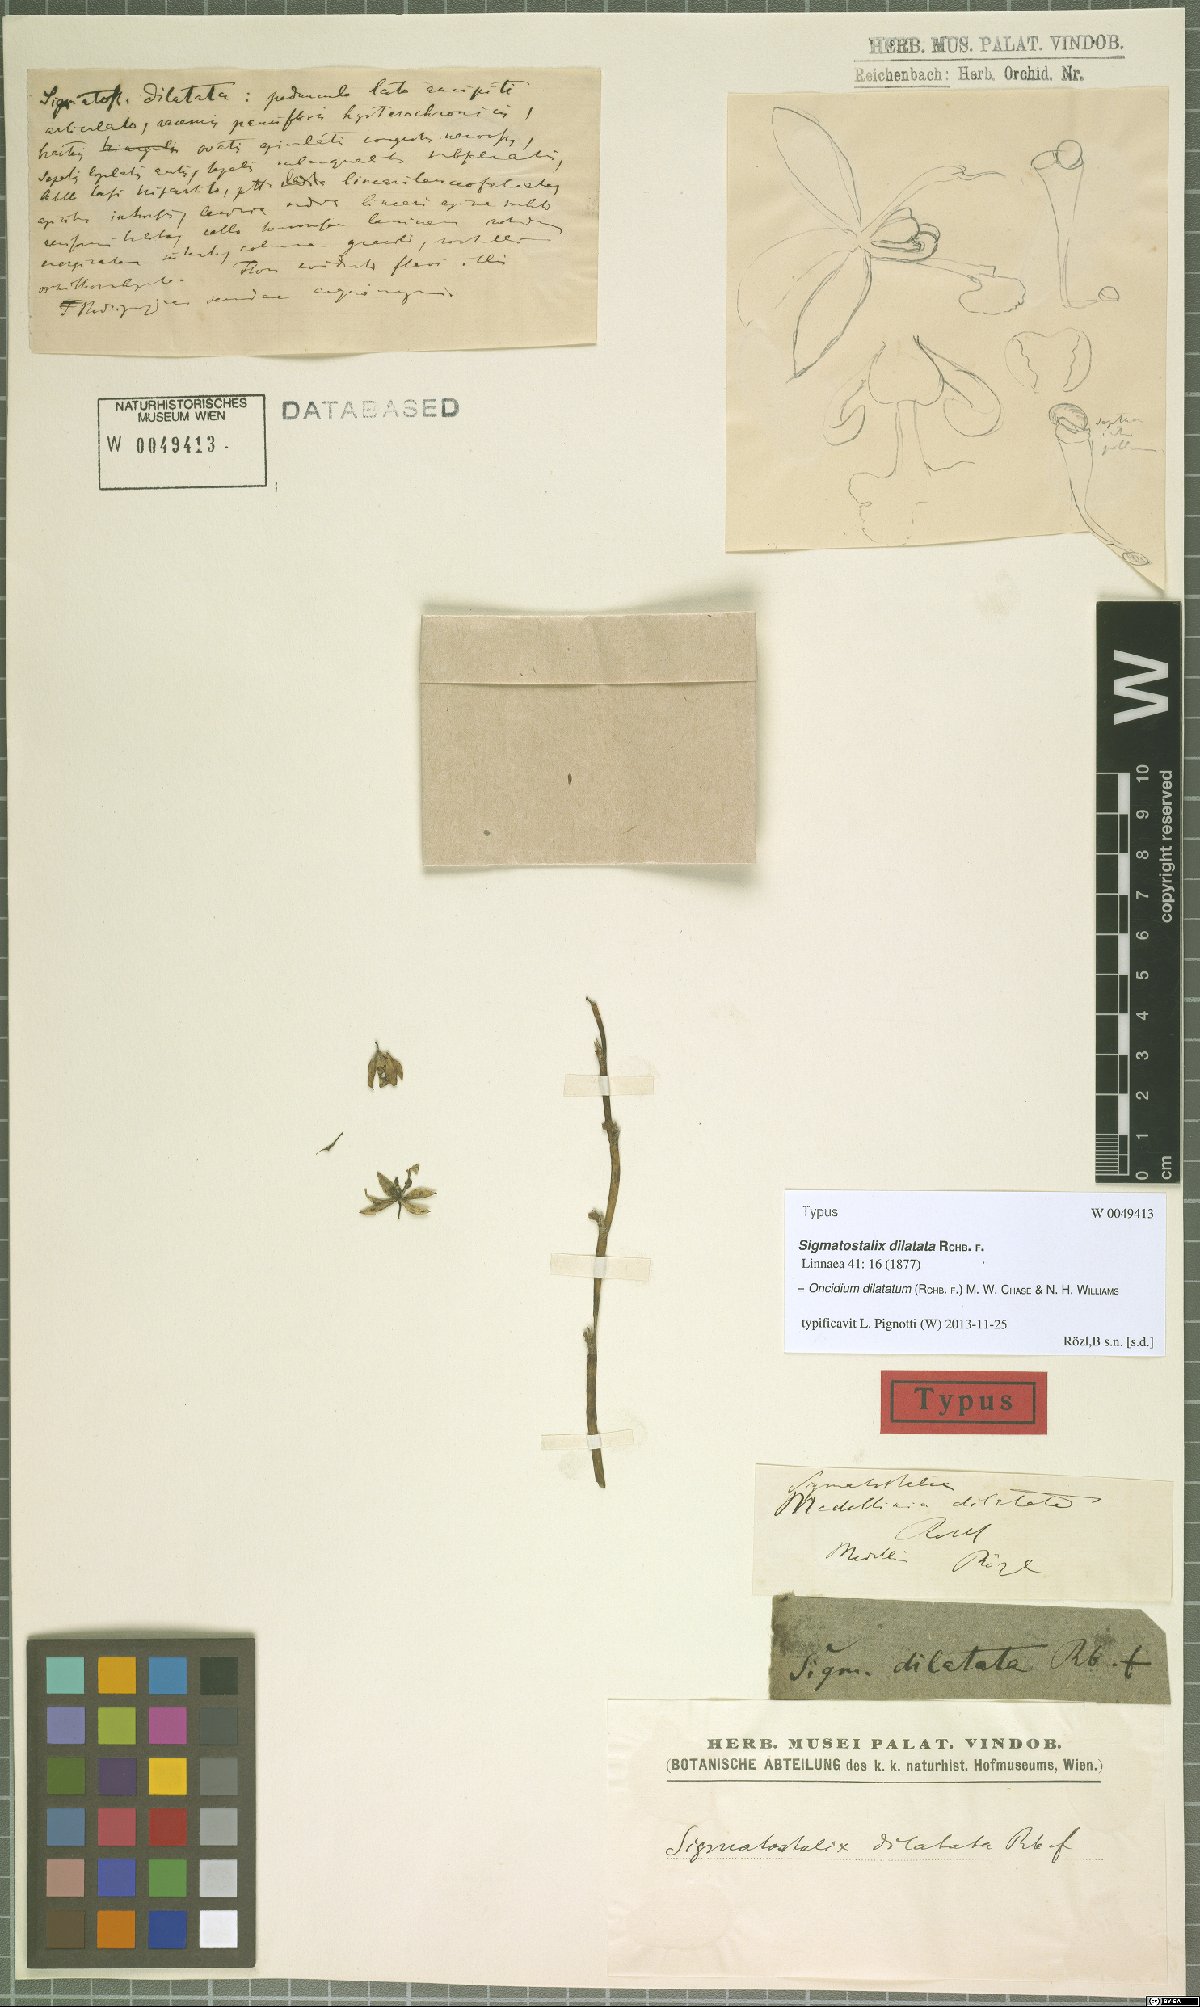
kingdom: Plantae
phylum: Tracheophyta
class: Liliopsida
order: Asparagales
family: Orchidaceae
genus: Oncidium
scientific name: Oncidium dilatatum
